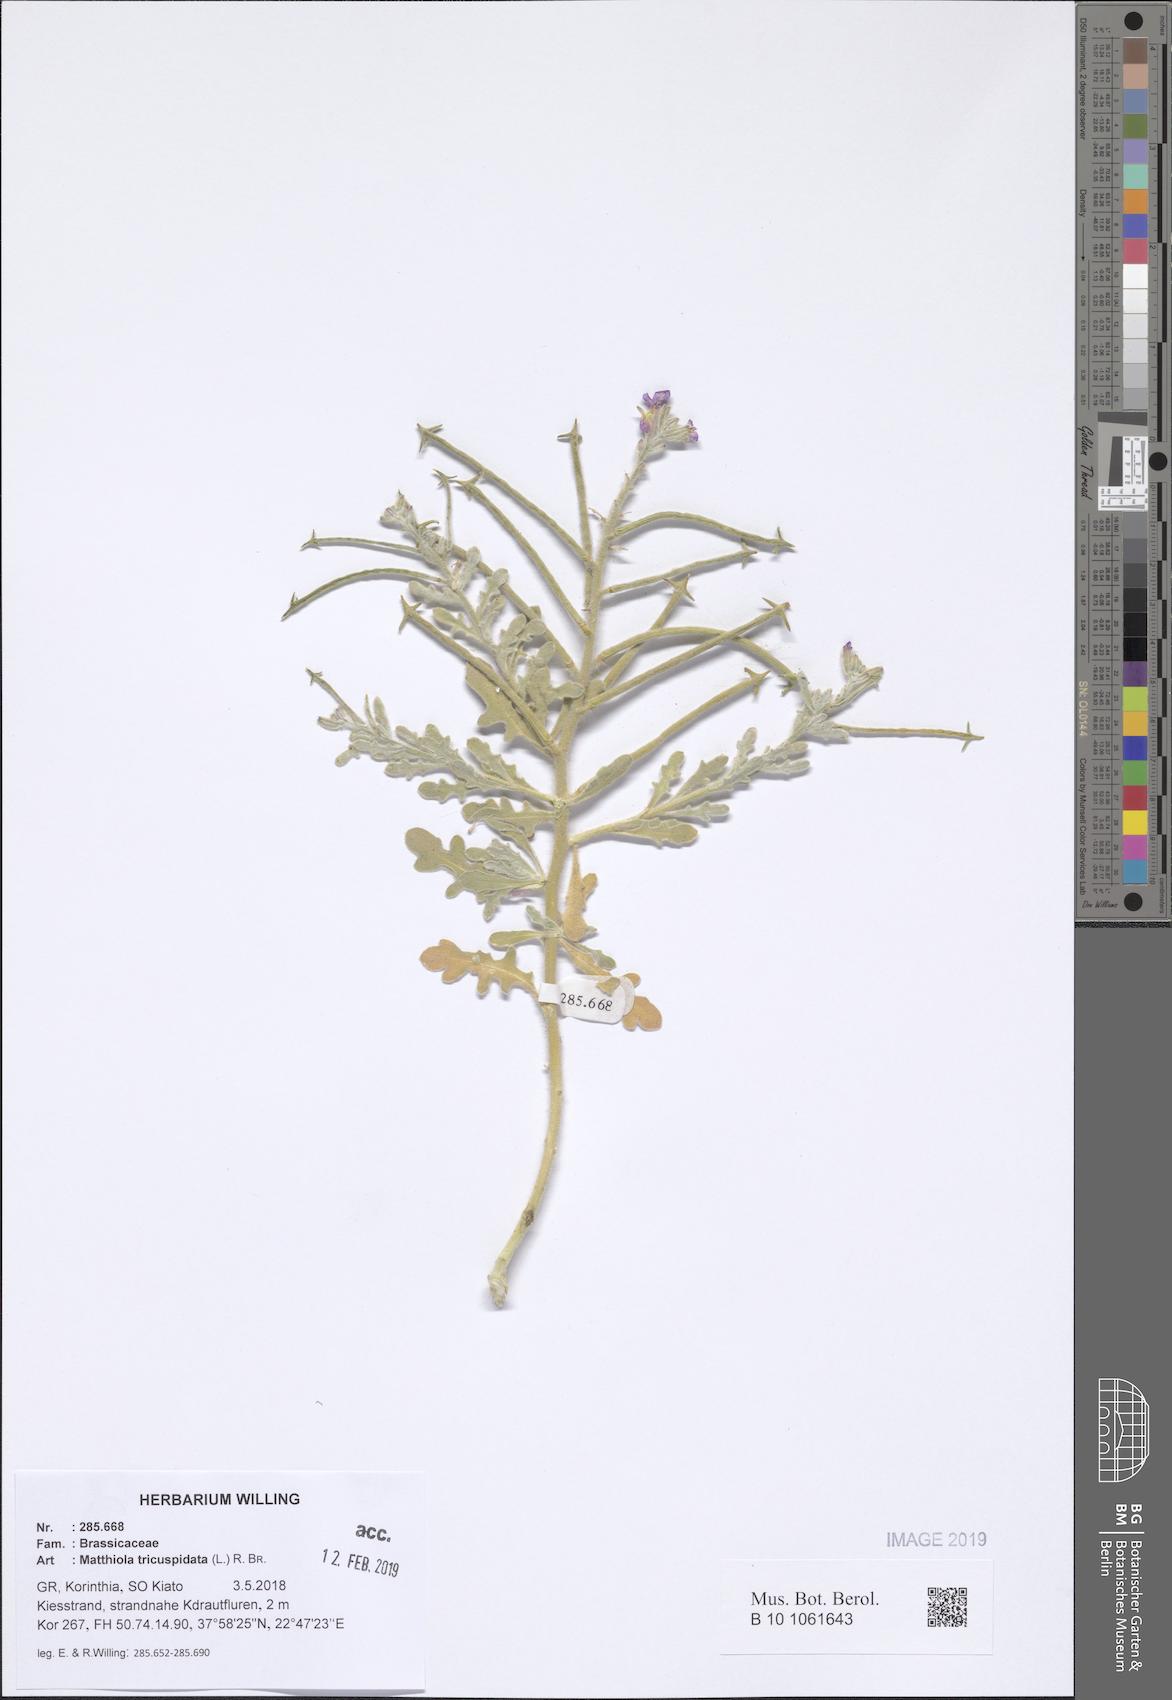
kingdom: Plantae
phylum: Tracheophyta
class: Magnoliopsida
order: Brassicales
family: Brassicaceae
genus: Matthiola
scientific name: Matthiola tricuspidata
